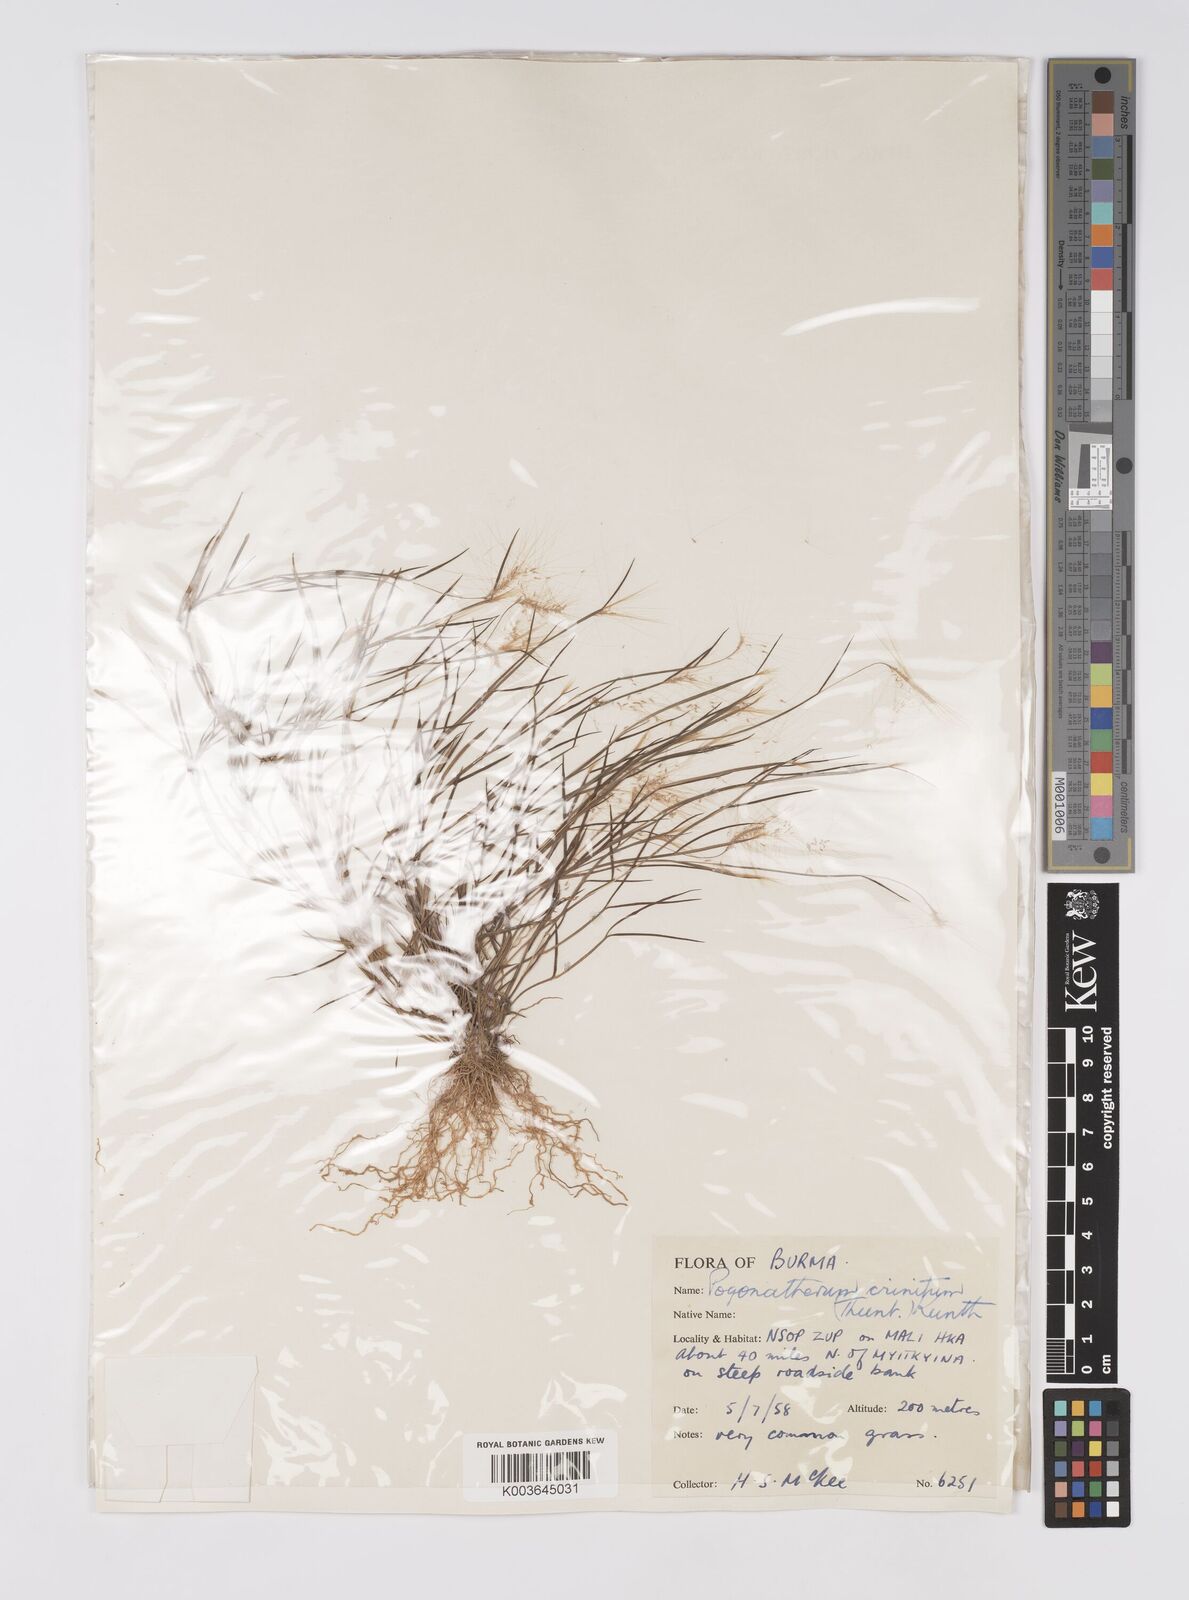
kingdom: Plantae
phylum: Tracheophyta
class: Liliopsida
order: Poales
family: Poaceae
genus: Pogonatherum
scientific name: Pogonatherum crinitum
